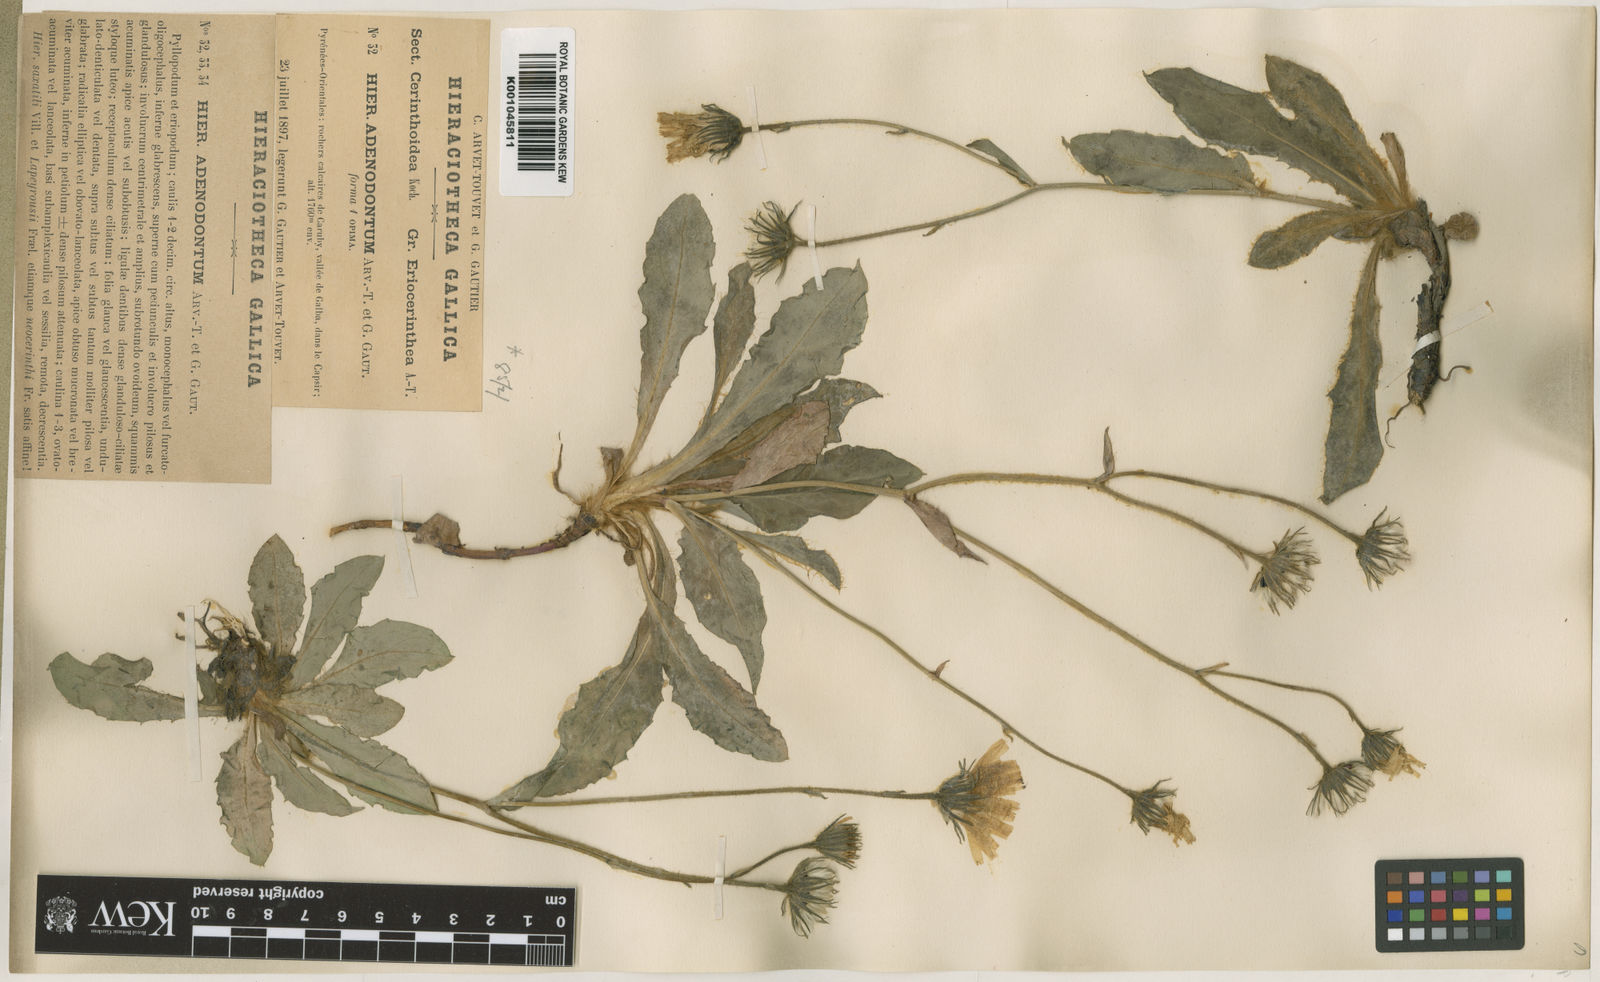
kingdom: Plantae
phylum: Tracheophyta
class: Magnoliopsida
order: Asterales
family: Asteraceae
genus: Hieracium
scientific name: Hieracium benascanum
